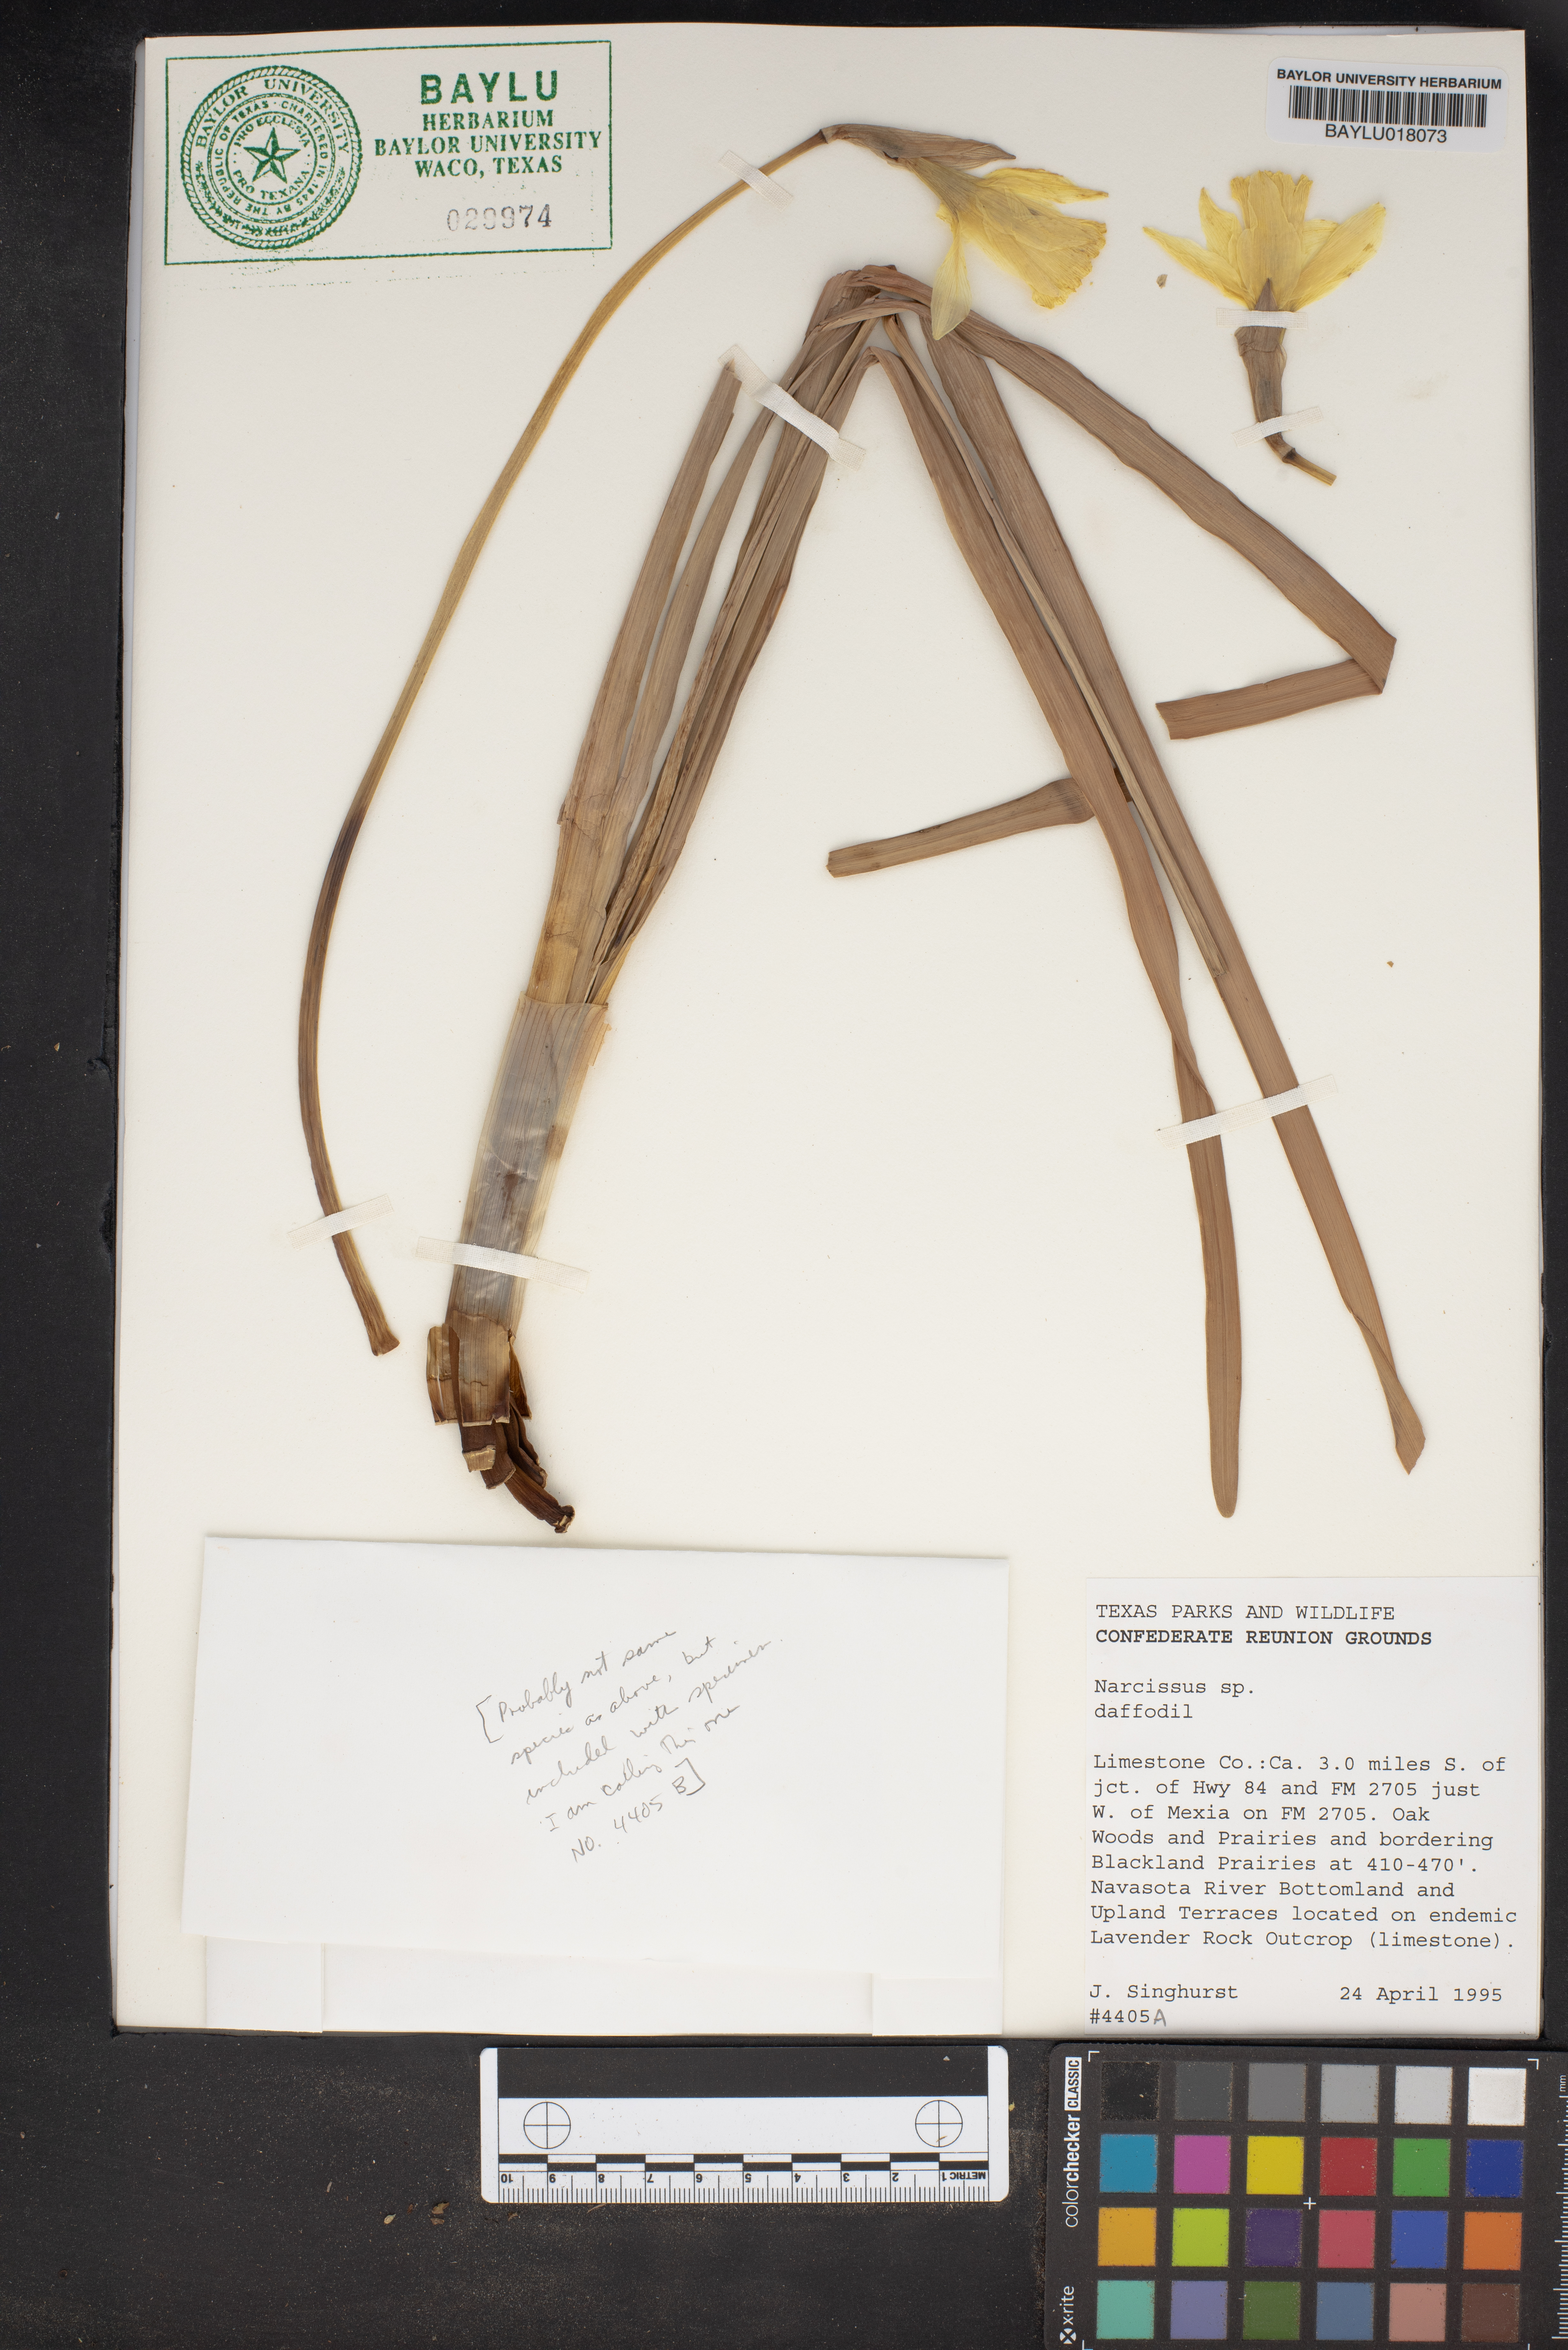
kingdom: Plantae
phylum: Tracheophyta
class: Liliopsida
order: Asparagales
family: Amaryllidaceae
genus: Narcissus
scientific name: Narcissus
